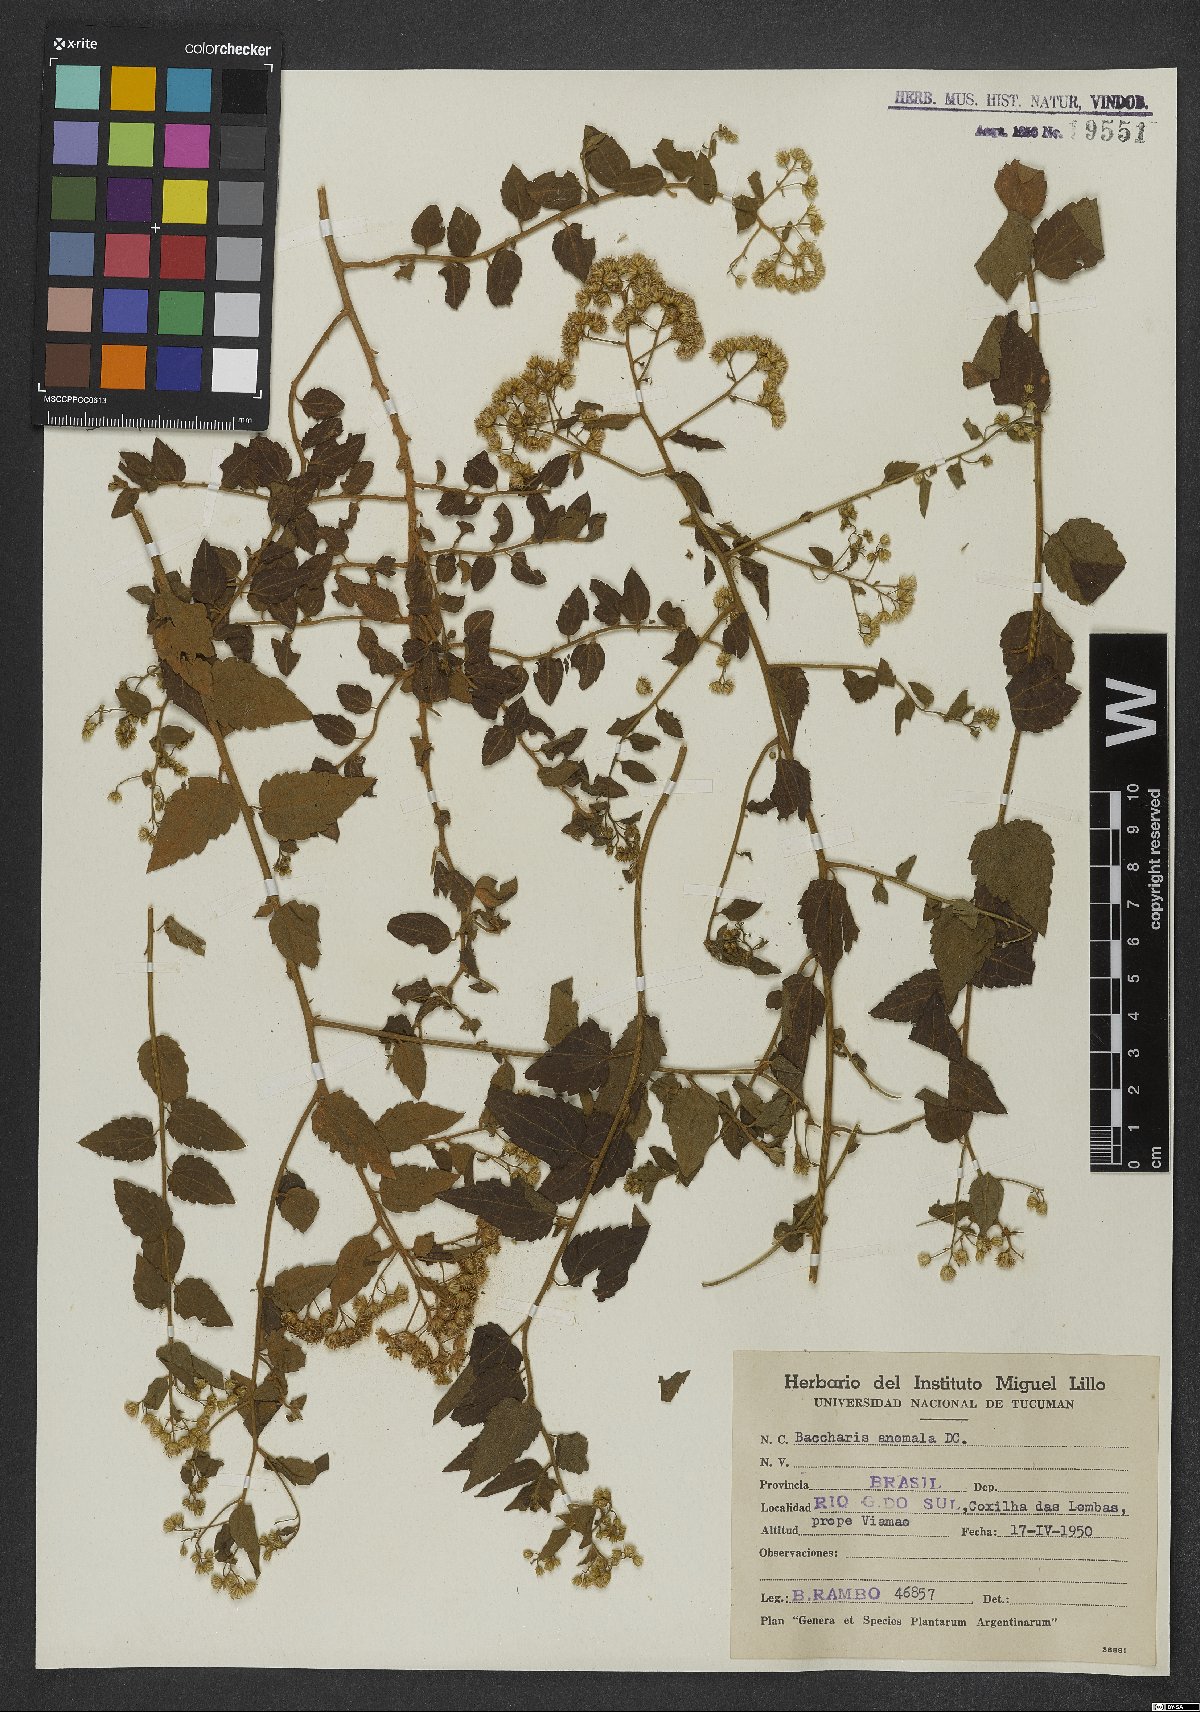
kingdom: Plantae
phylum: Tracheophyta
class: Magnoliopsida
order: Asterales
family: Asteraceae
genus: Baccharis
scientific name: Baccharis anomala
